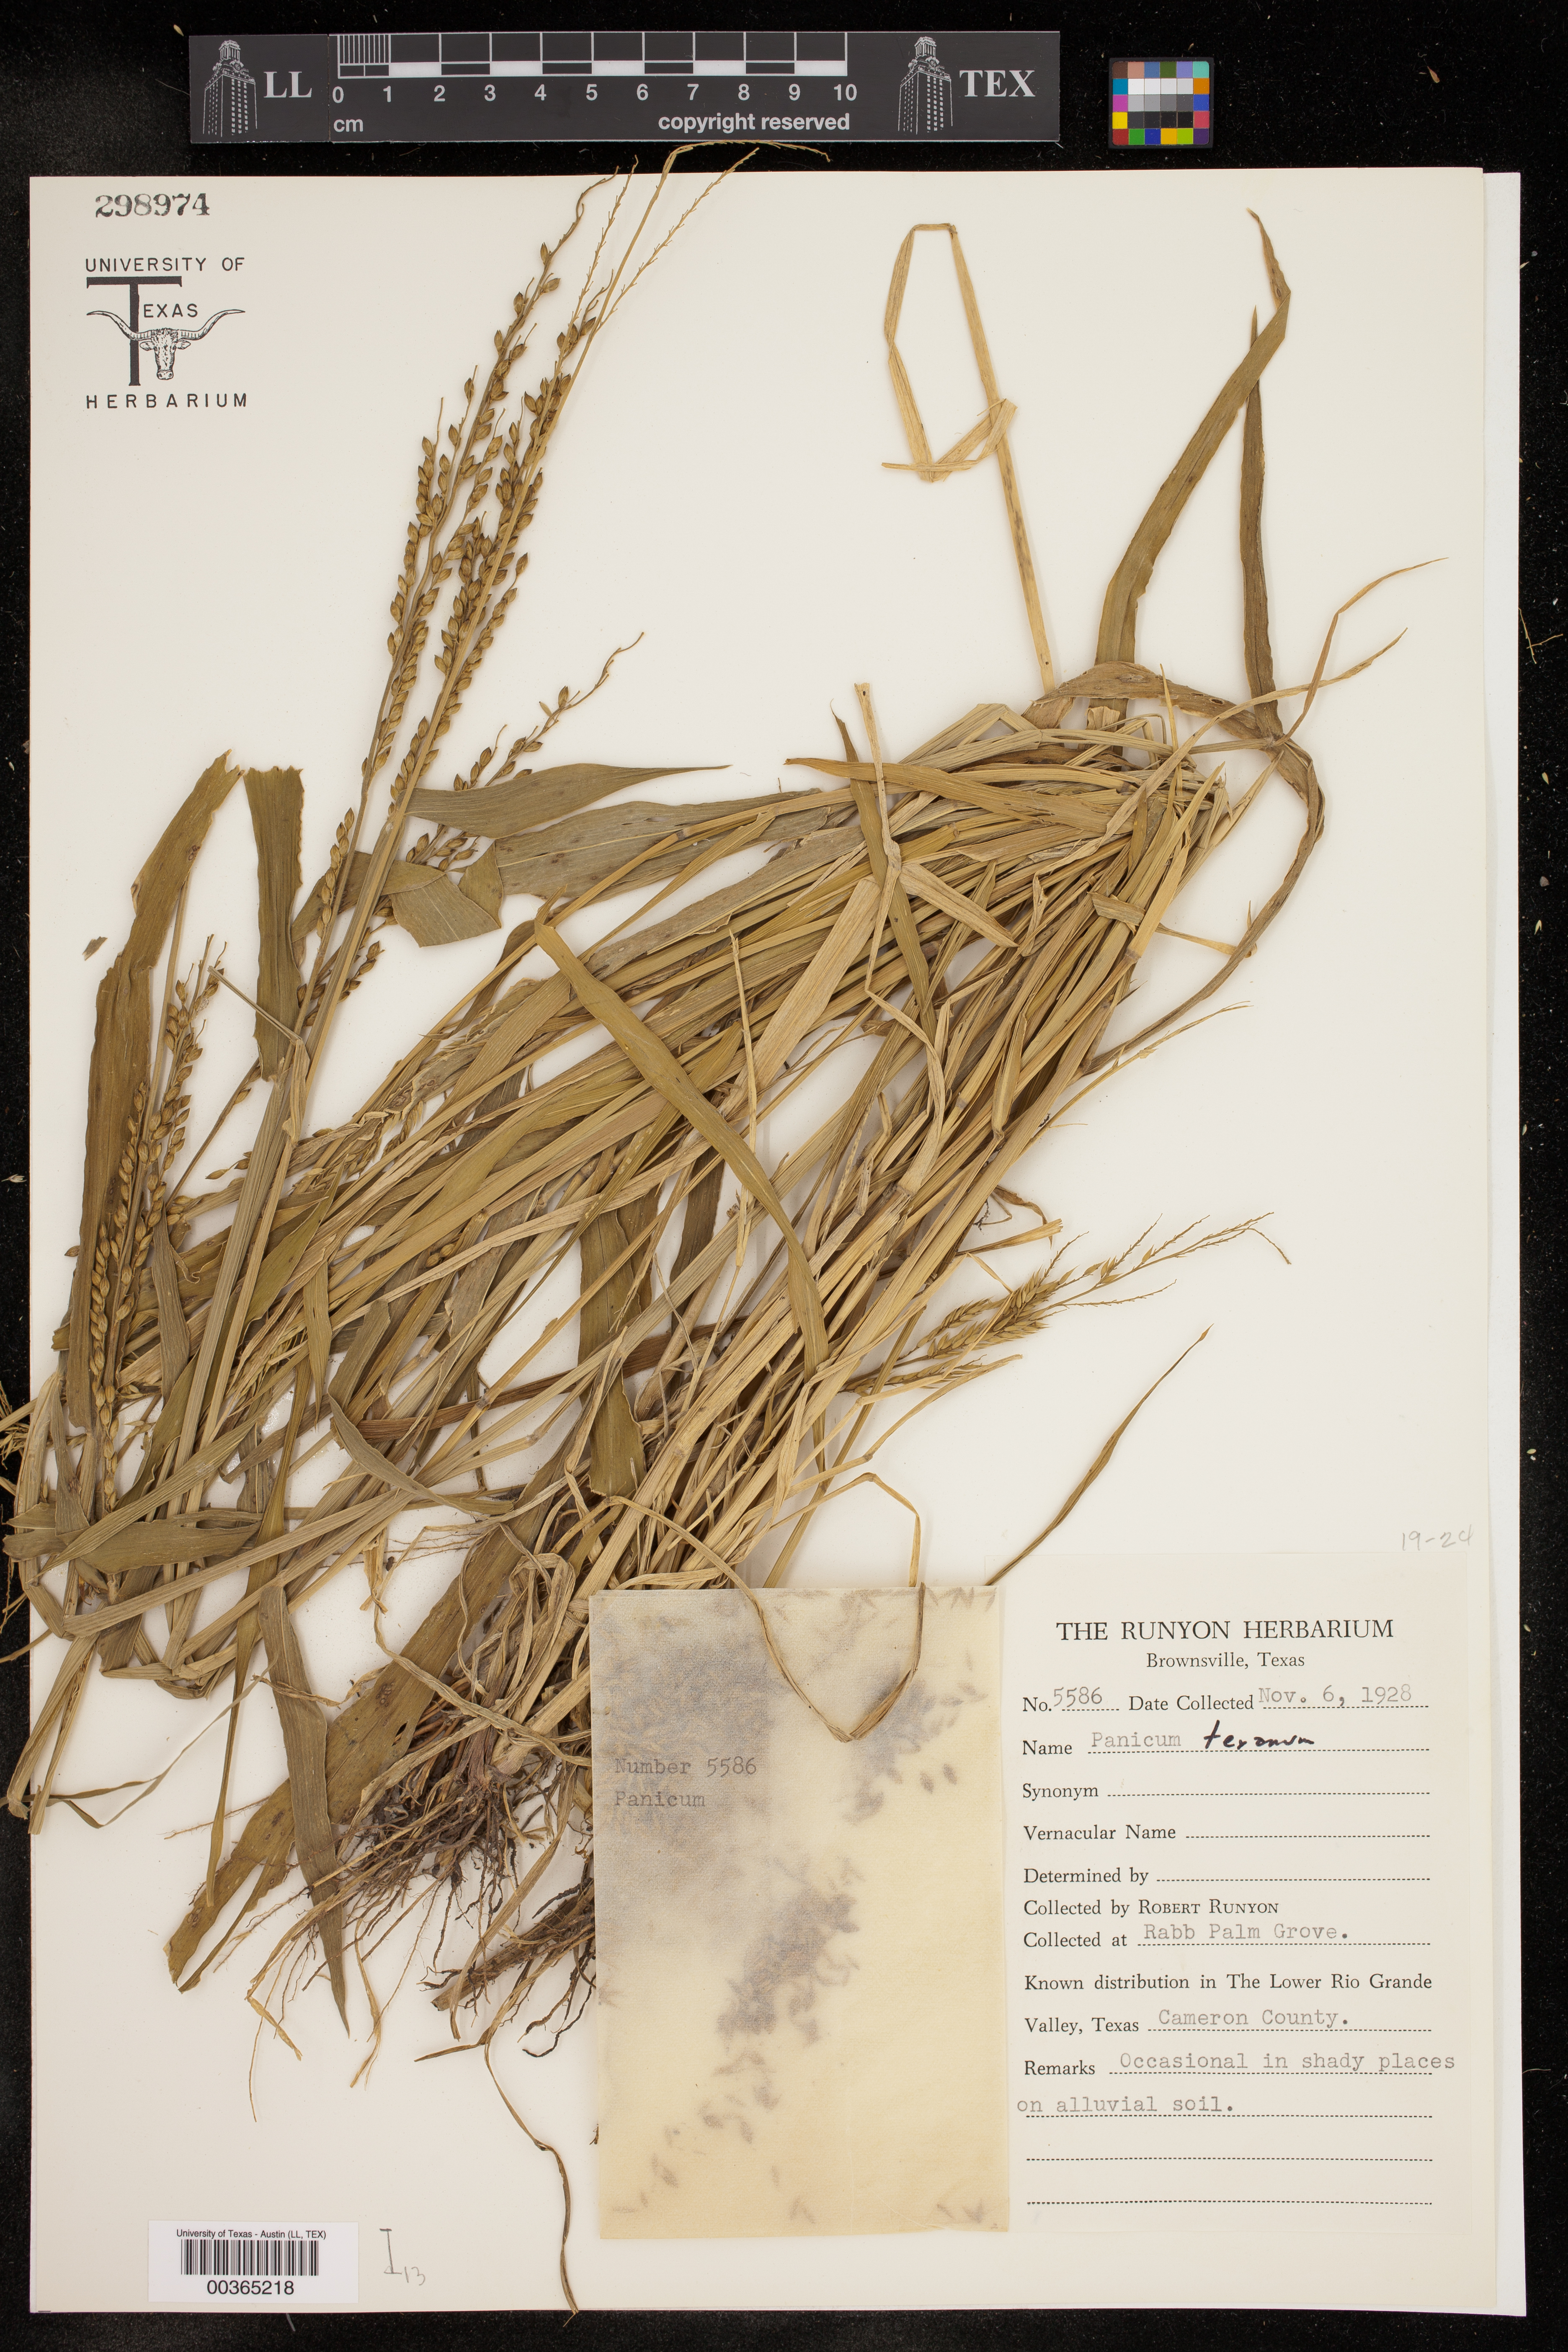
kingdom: Plantae
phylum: Tracheophyta
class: Liliopsida
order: Poales
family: Poaceae
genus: Panicum
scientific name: Panicum
